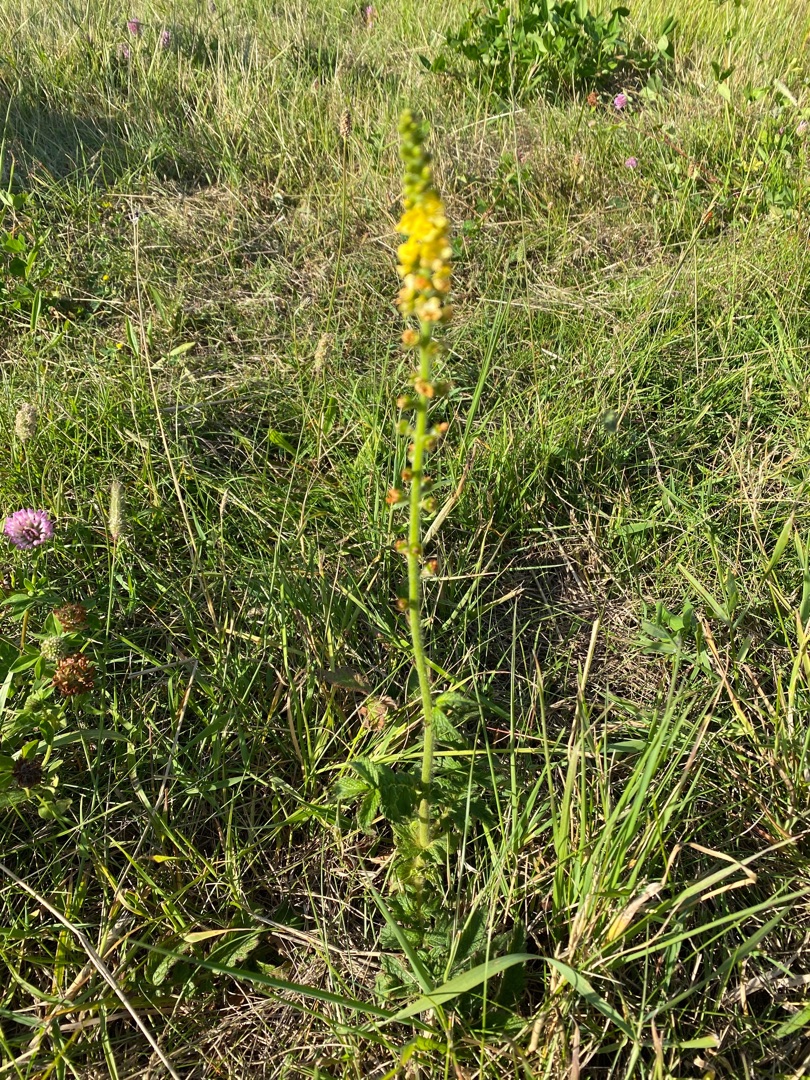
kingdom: Plantae
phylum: Tracheophyta
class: Magnoliopsida
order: Rosales
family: Rosaceae
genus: Agrimonia
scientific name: Agrimonia eupatoria
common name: Almindelig agermåne
